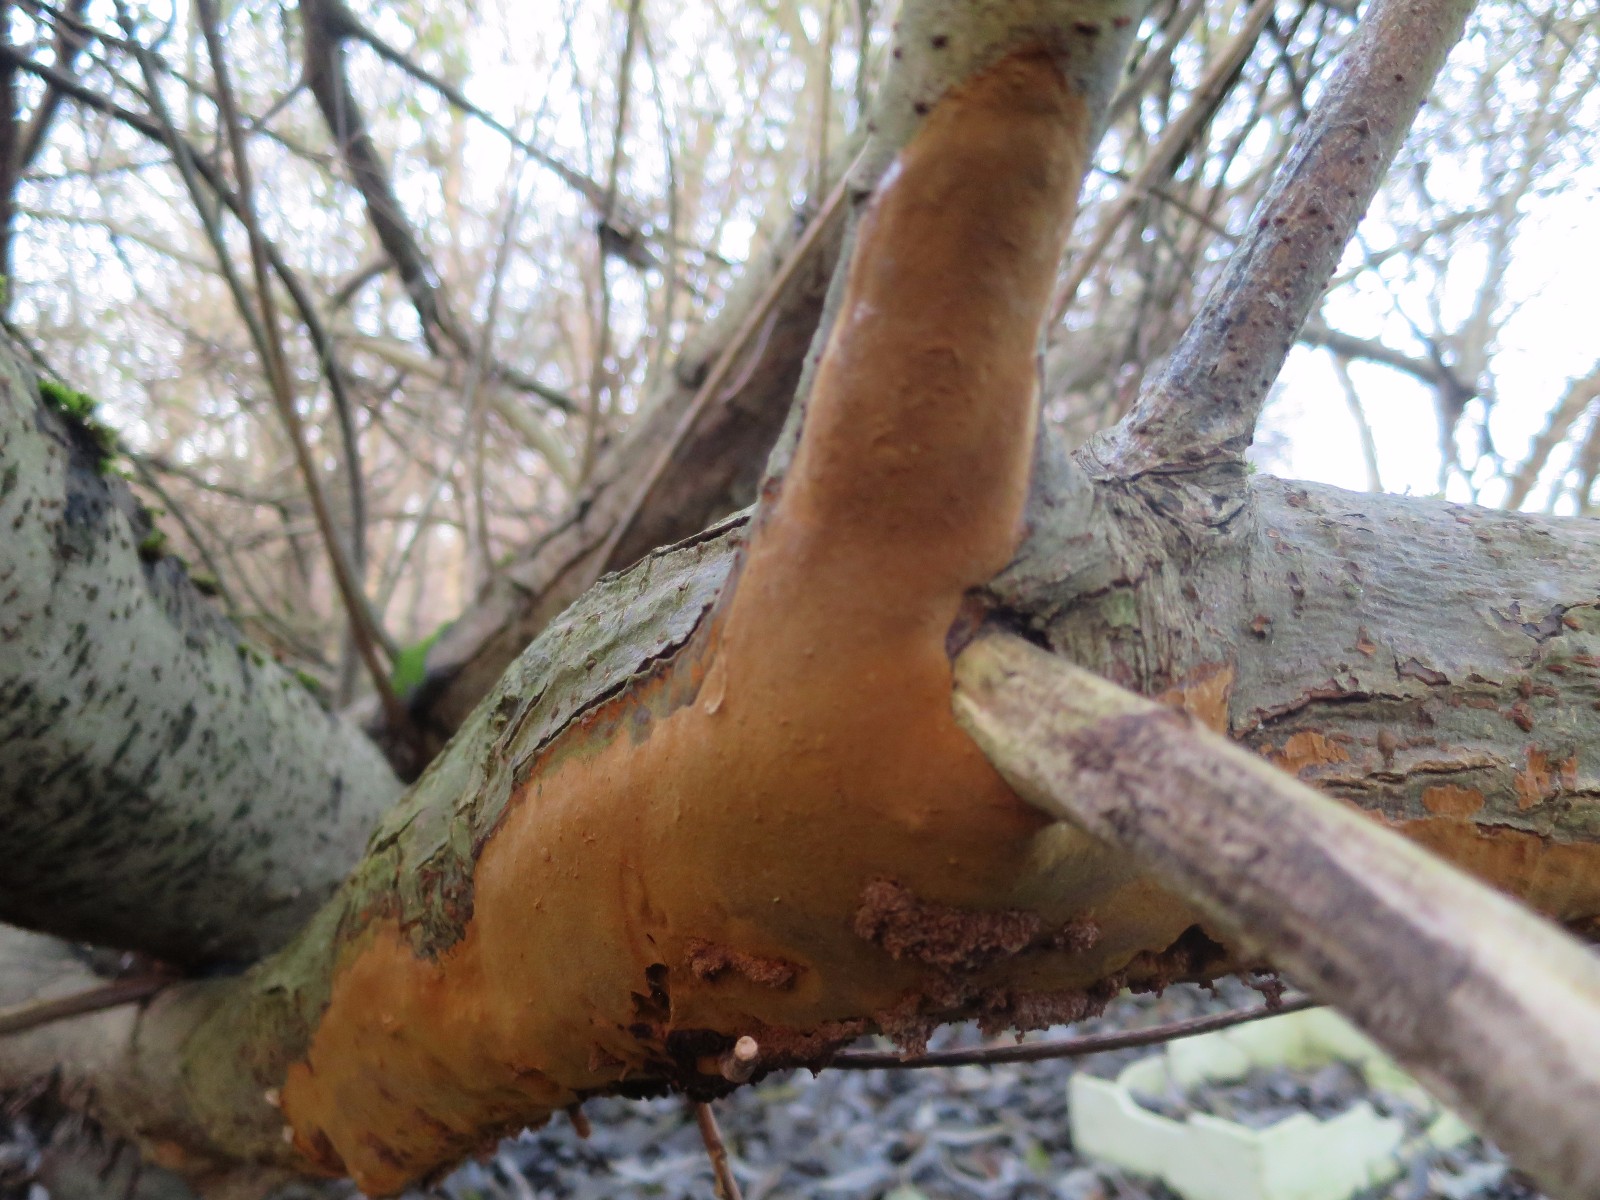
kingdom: Fungi
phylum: Basidiomycota
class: Agaricomycetes
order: Hymenochaetales
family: Hymenochaetaceae
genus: Fomitiporia
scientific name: Fomitiporia punctata
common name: pude-ildporesvamp
